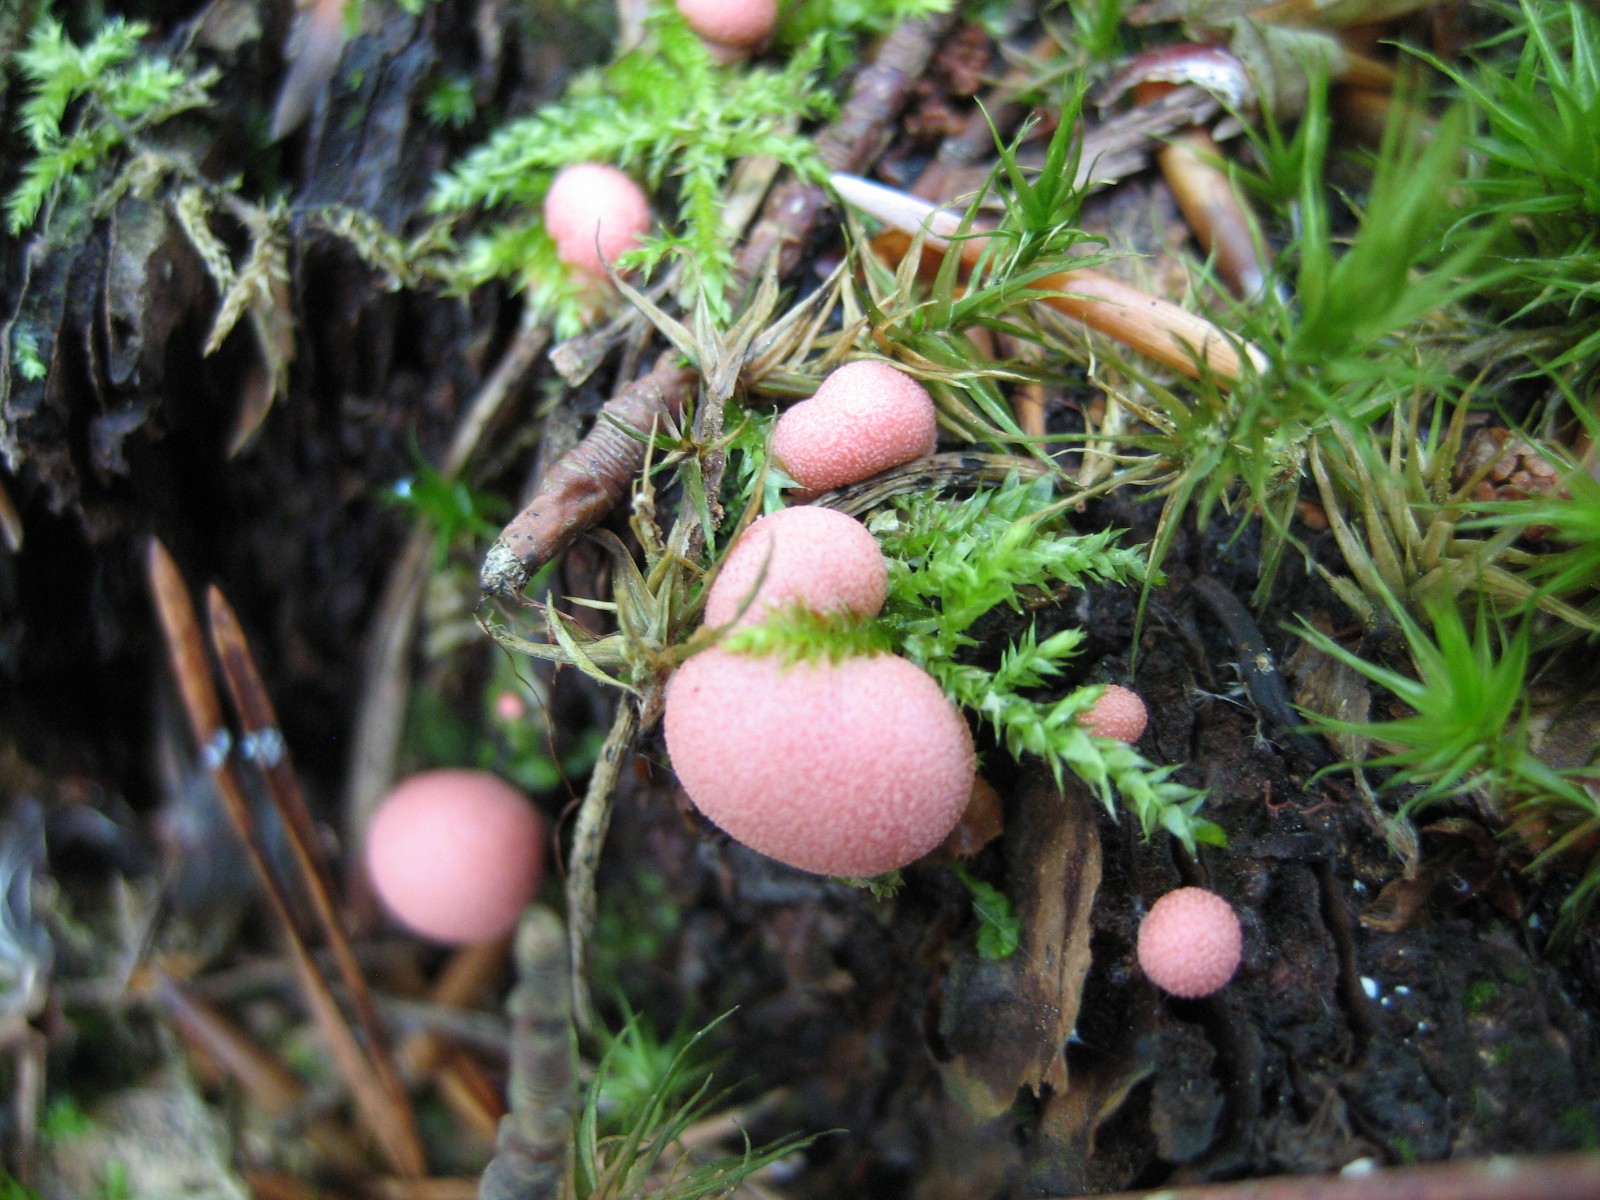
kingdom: Protozoa
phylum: Mycetozoa
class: Myxomycetes
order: Cribrariales
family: Tubiferaceae
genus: Lycogala
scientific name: Lycogala epidendrum
